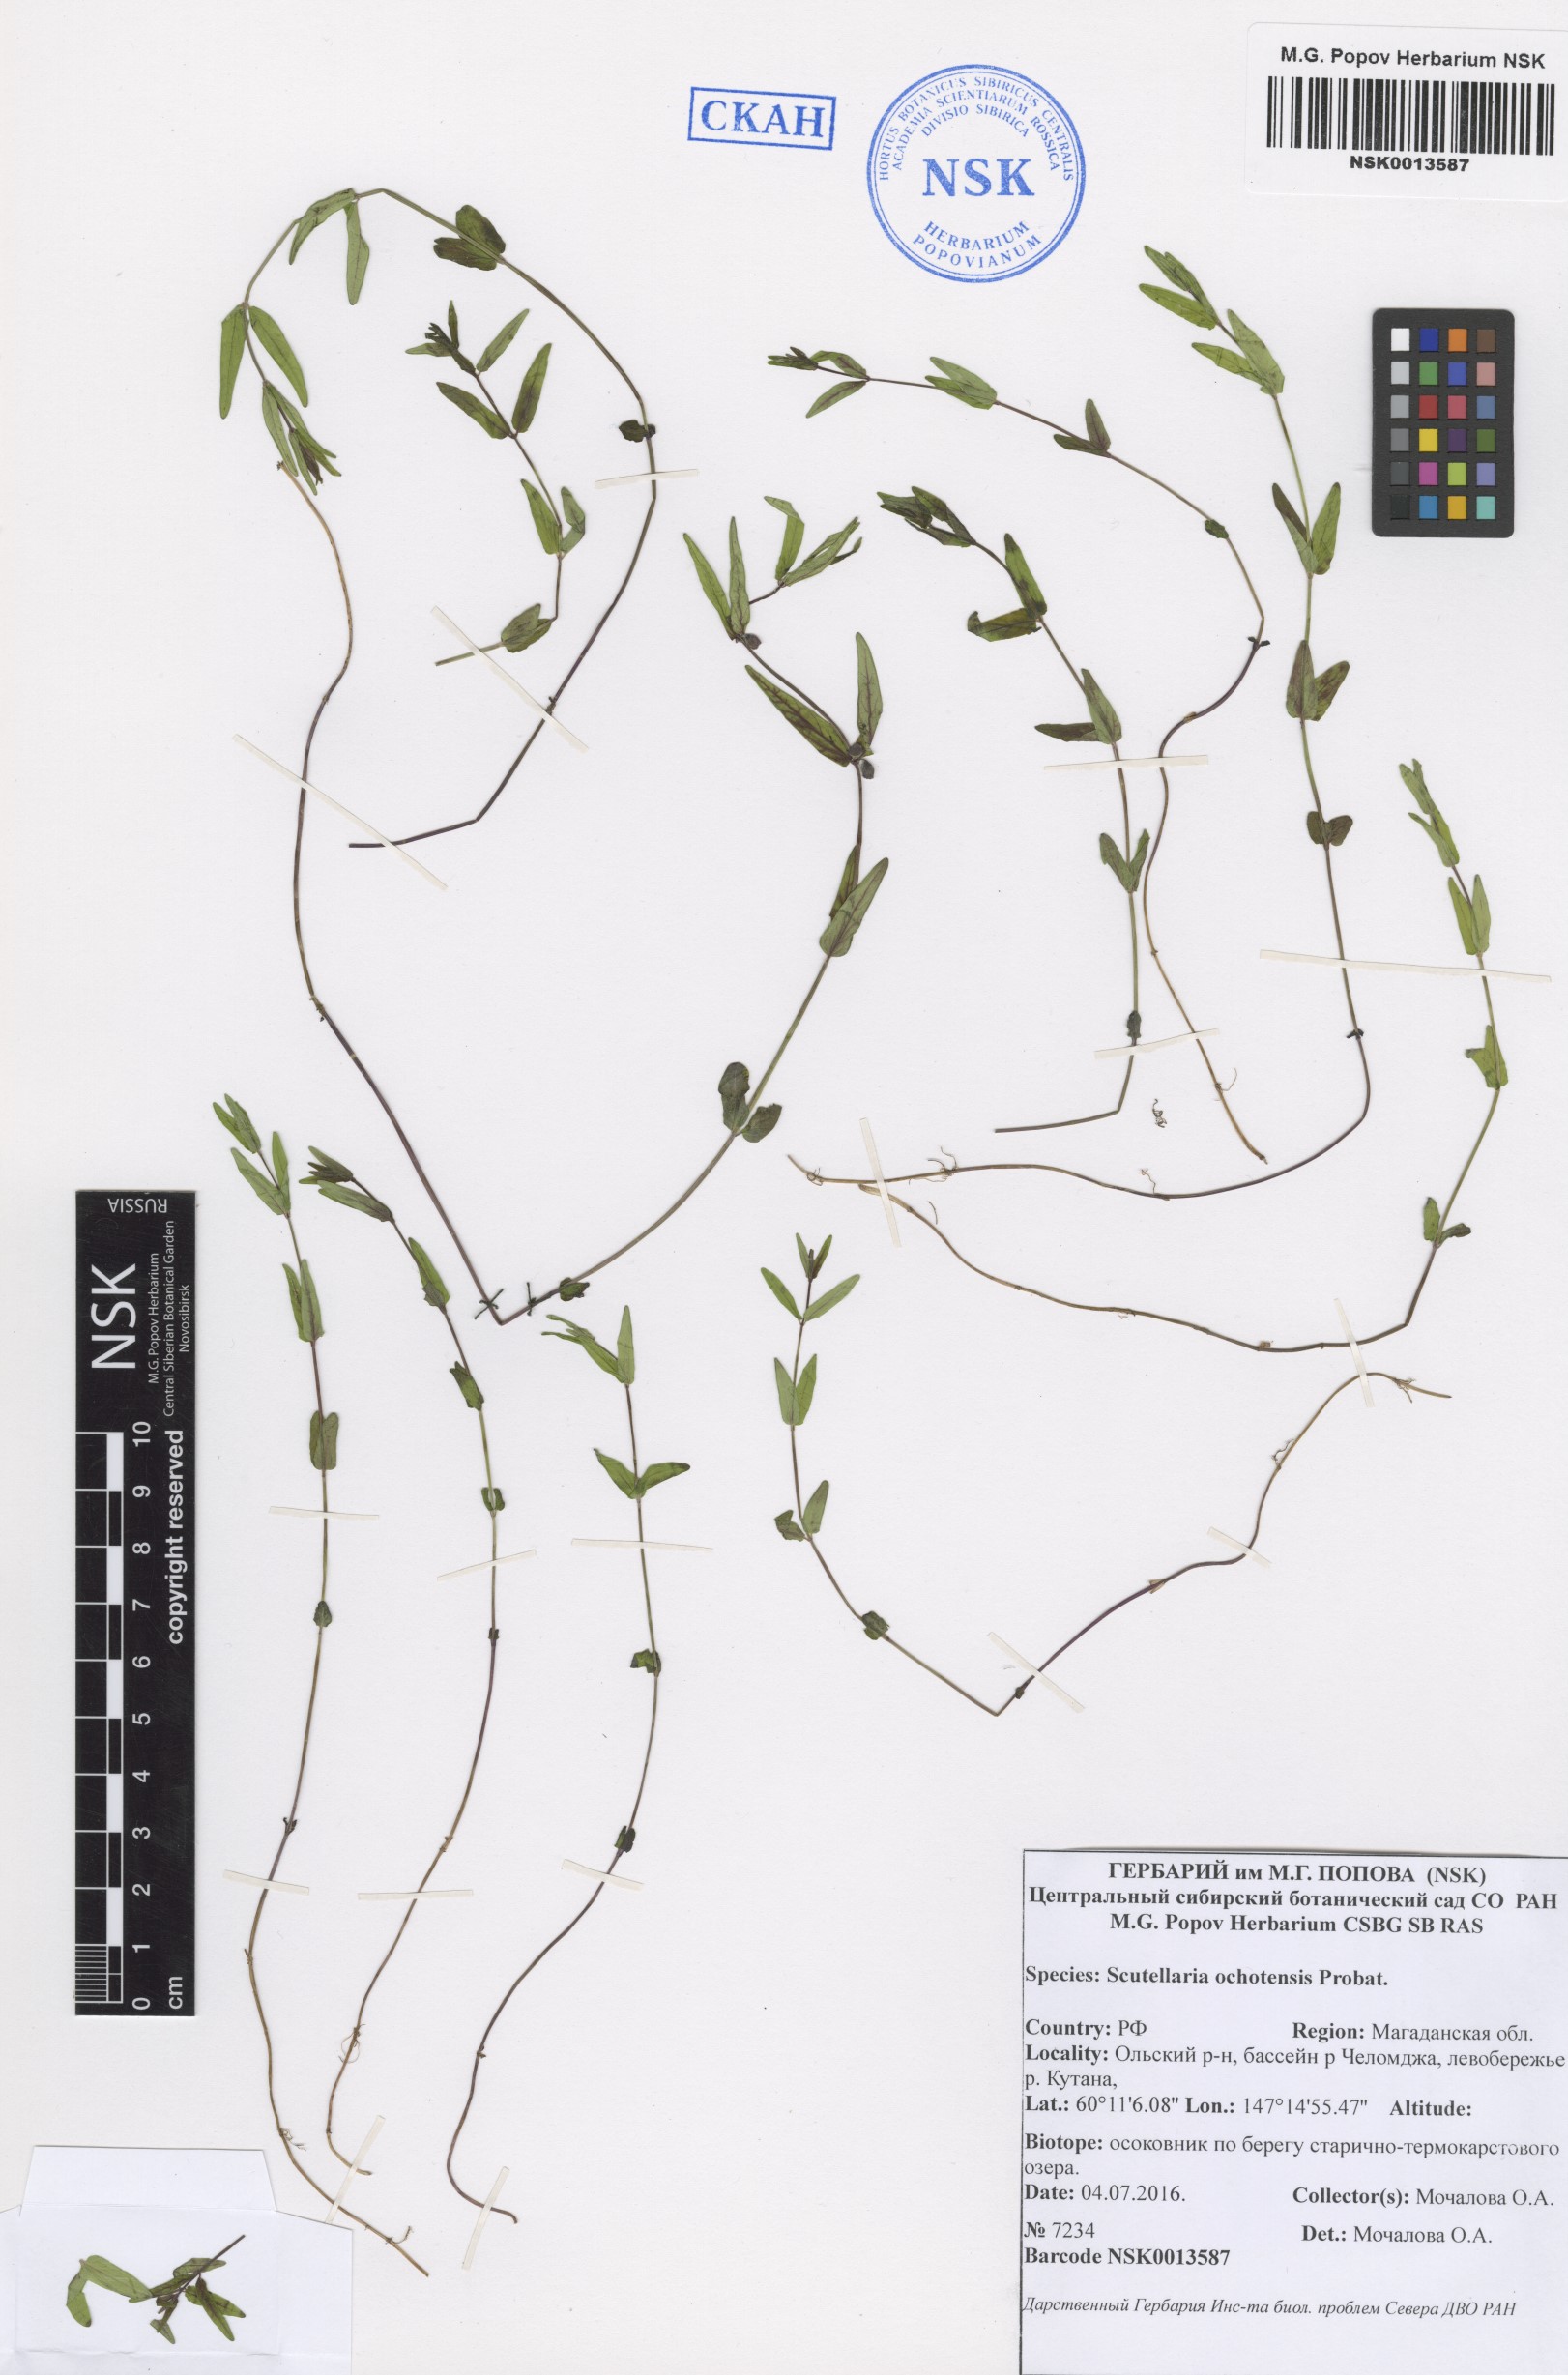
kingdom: Plantae
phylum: Tracheophyta
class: Magnoliopsida
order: Lamiales
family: Lamiaceae
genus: Scutellaria
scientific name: Scutellaria ochotensis
